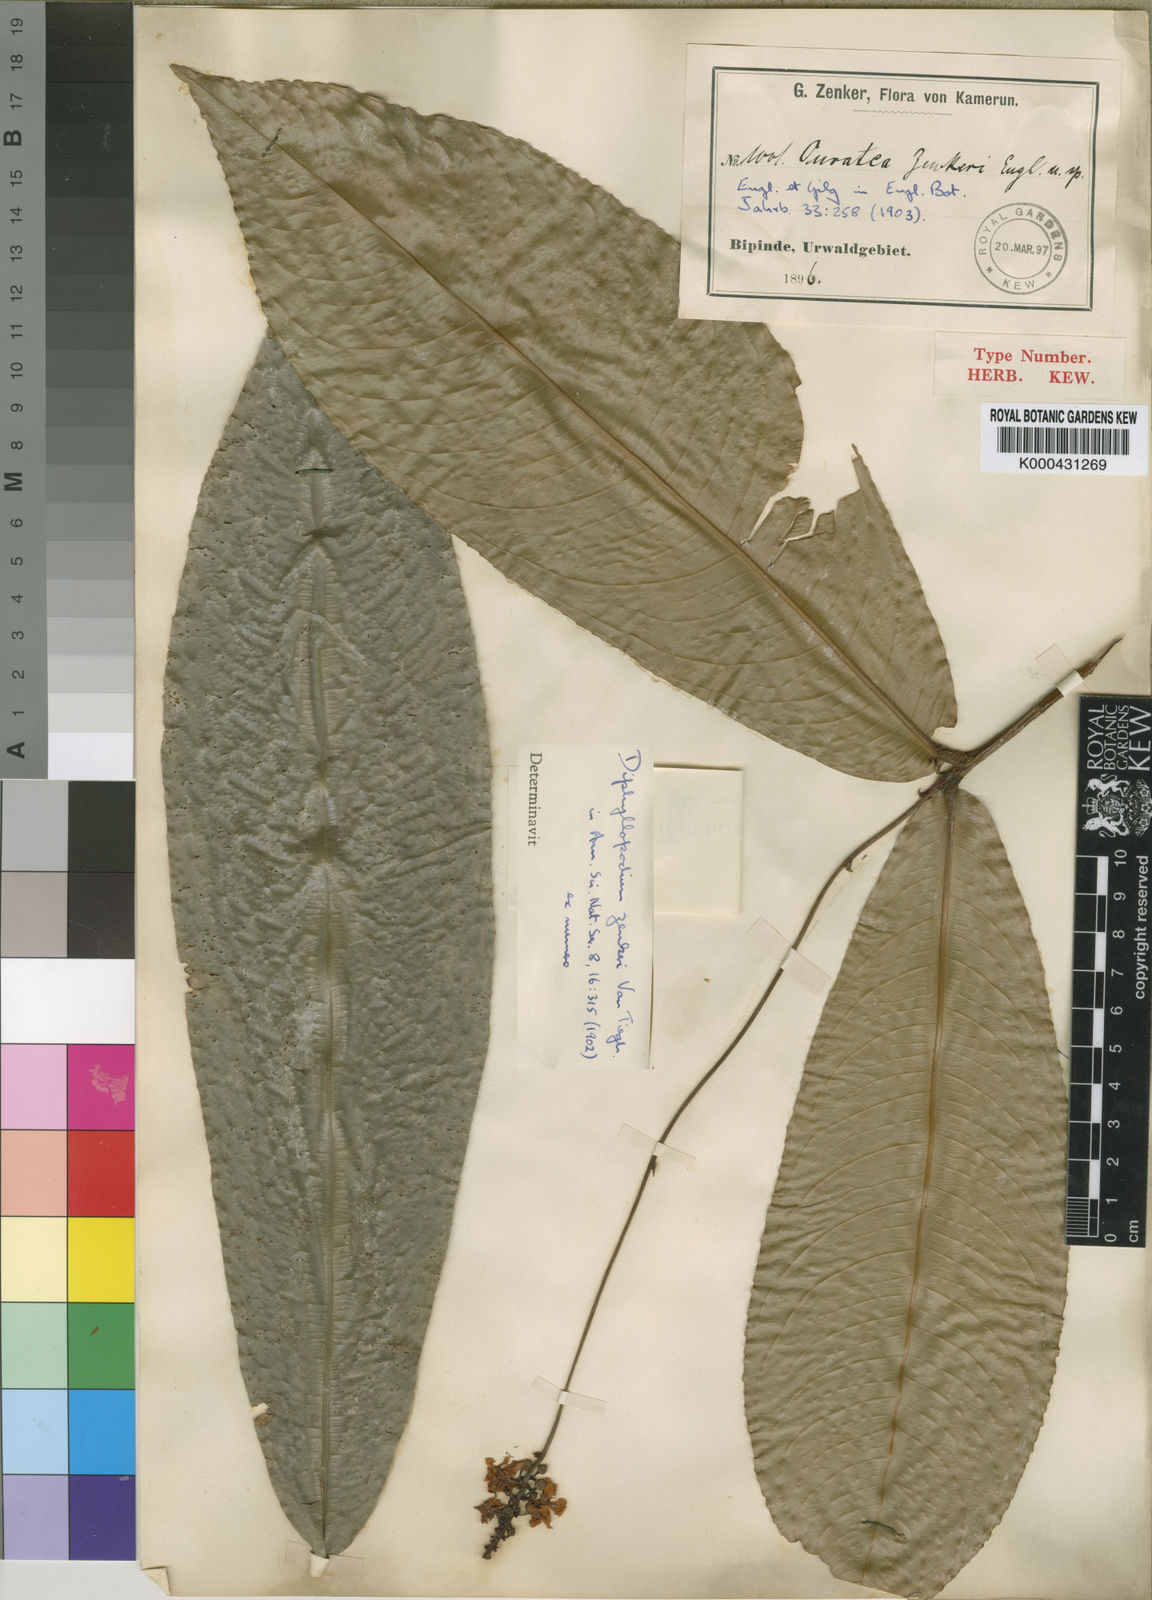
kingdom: Plantae
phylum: Tracheophyta
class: Magnoliopsida
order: Malpighiales
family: Ochnaceae
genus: Campylospermum
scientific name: Campylospermum zenkeri
